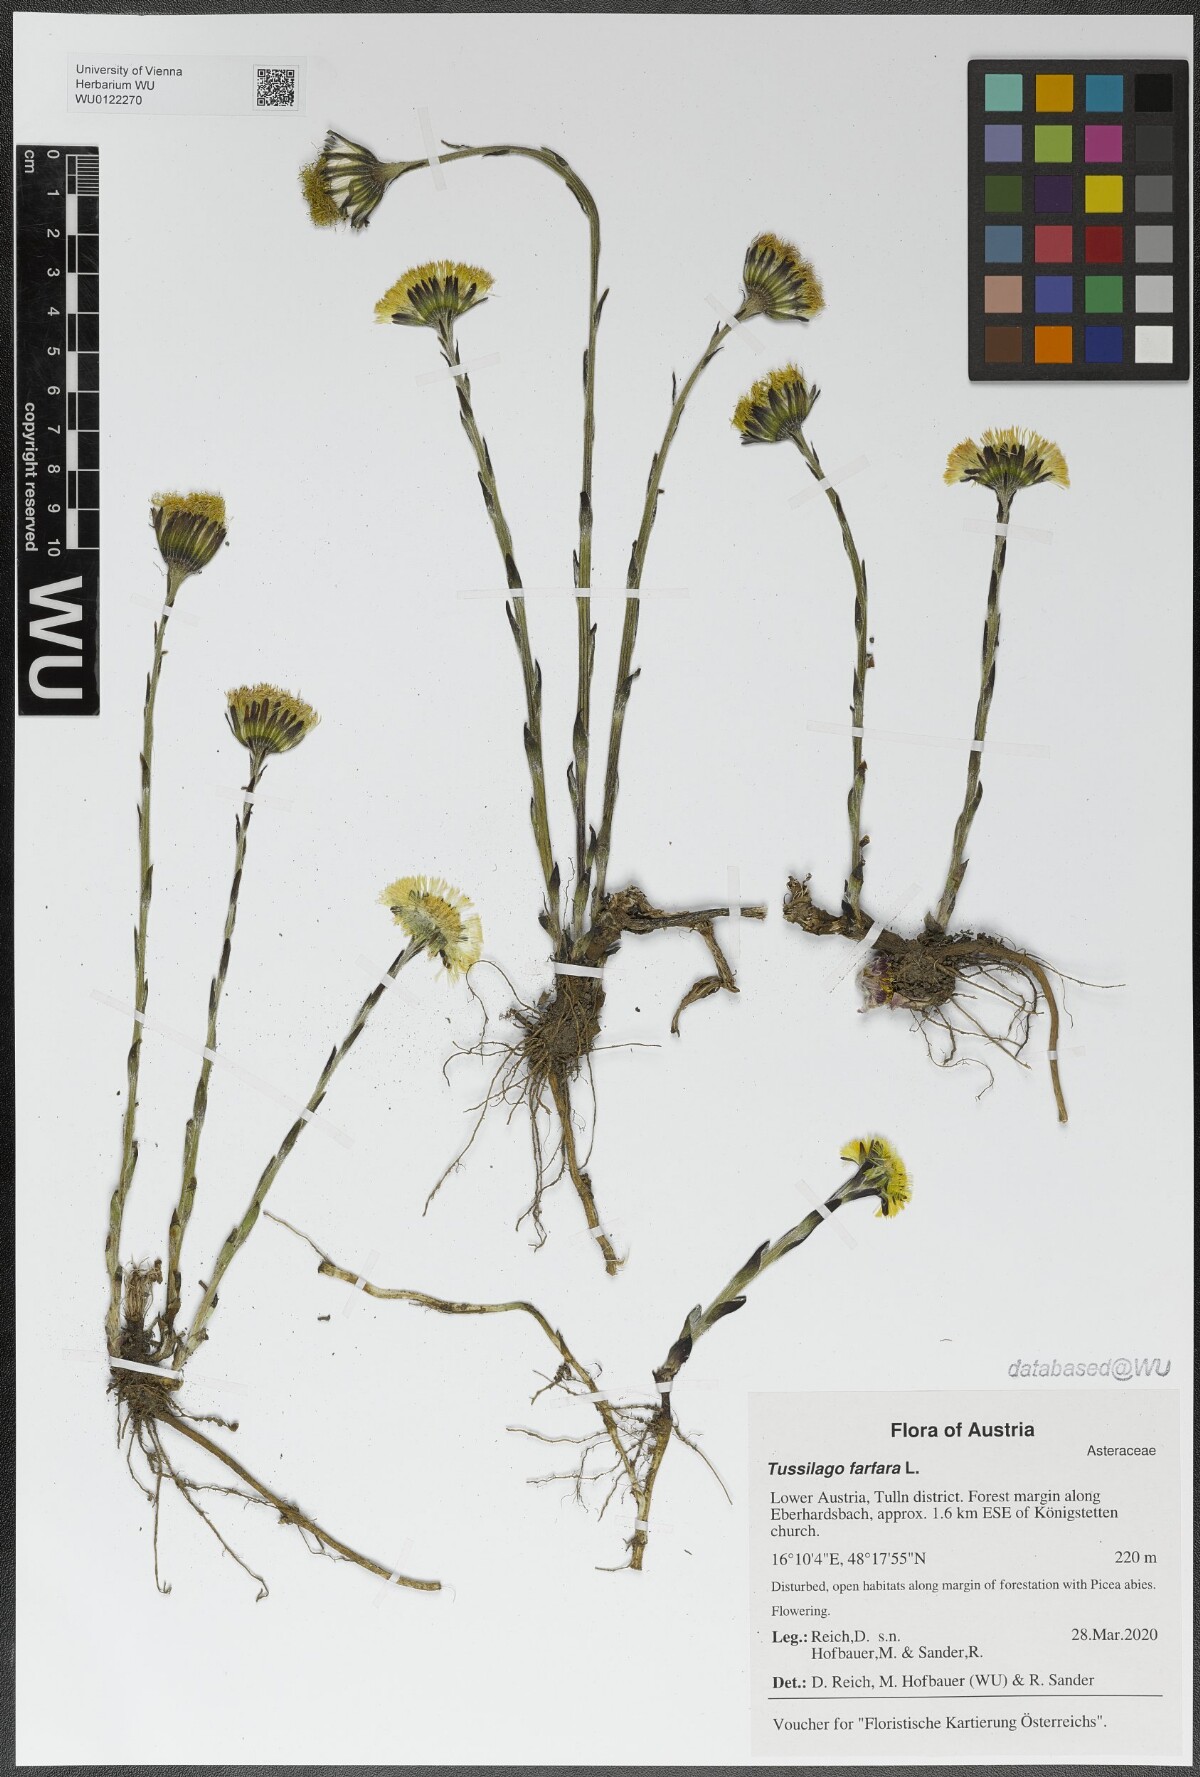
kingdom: Plantae
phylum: Tracheophyta
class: Magnoliopsida
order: Asterales
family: Asteraceae
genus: Tussilago
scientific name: Tussilago farfara
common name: Coltsfoot
